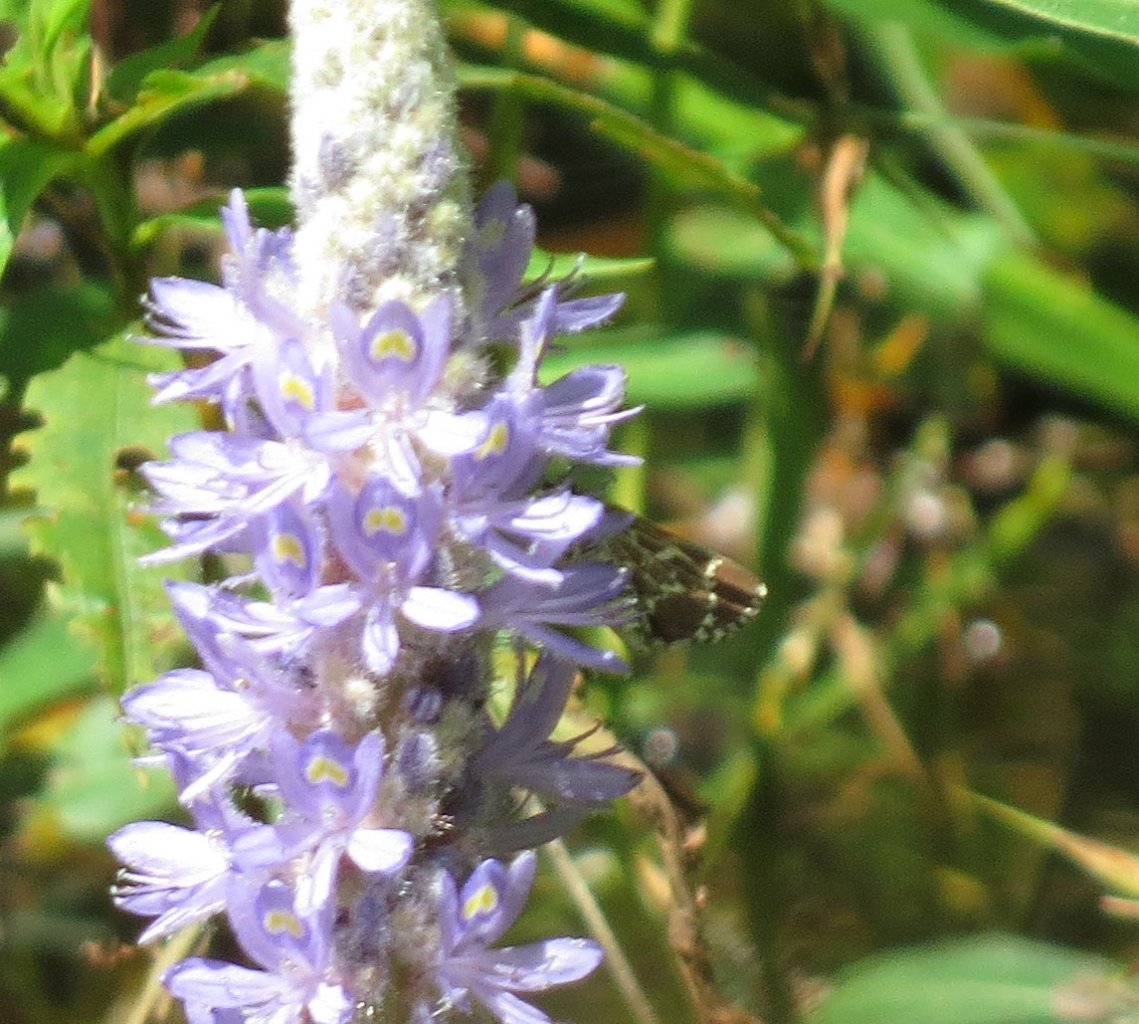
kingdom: Animalia
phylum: Arthropoda
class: Insecta
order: Lepidoptera
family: Hesperiidae
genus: Mastor
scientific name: Mastor aesculapius
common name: Lace-winged Roadside-Skipper
